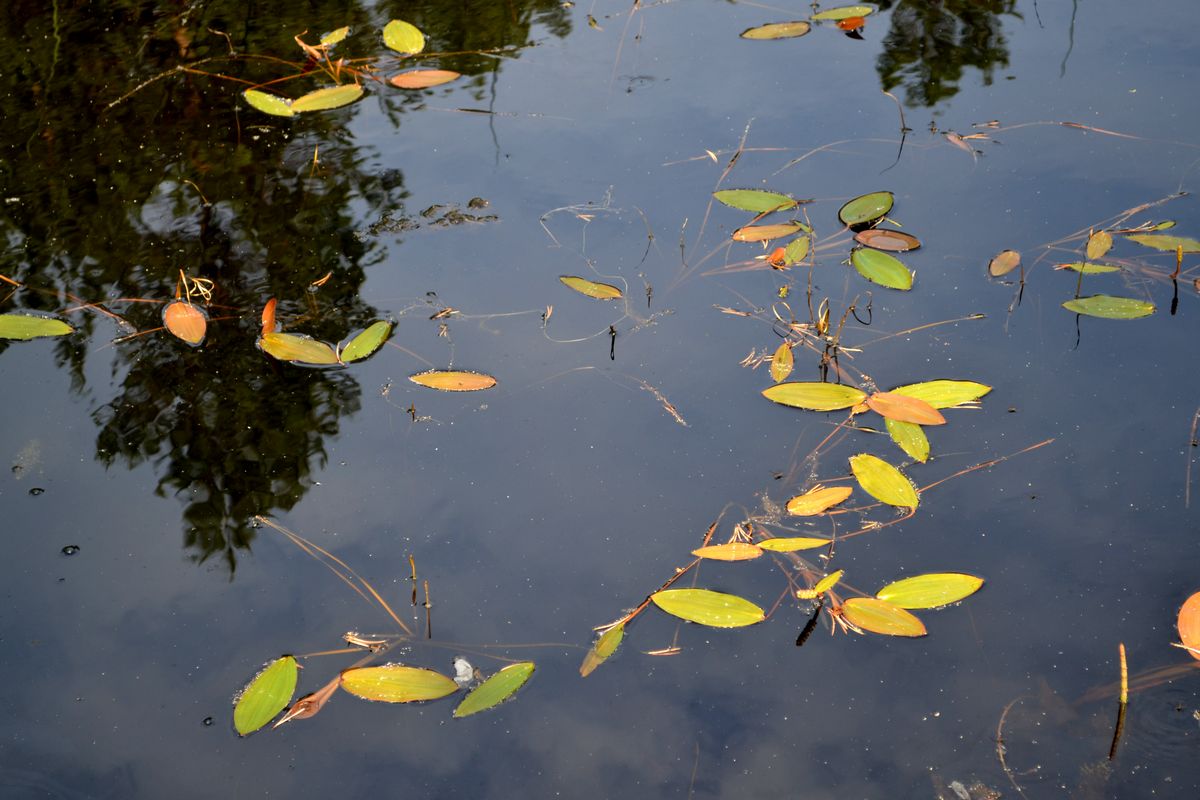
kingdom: Plantae
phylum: Tracheophyta
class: Liliopsida
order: Alismatales
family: Potamogetonaceae
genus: Potamogeton
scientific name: Potamogeton alpinus
